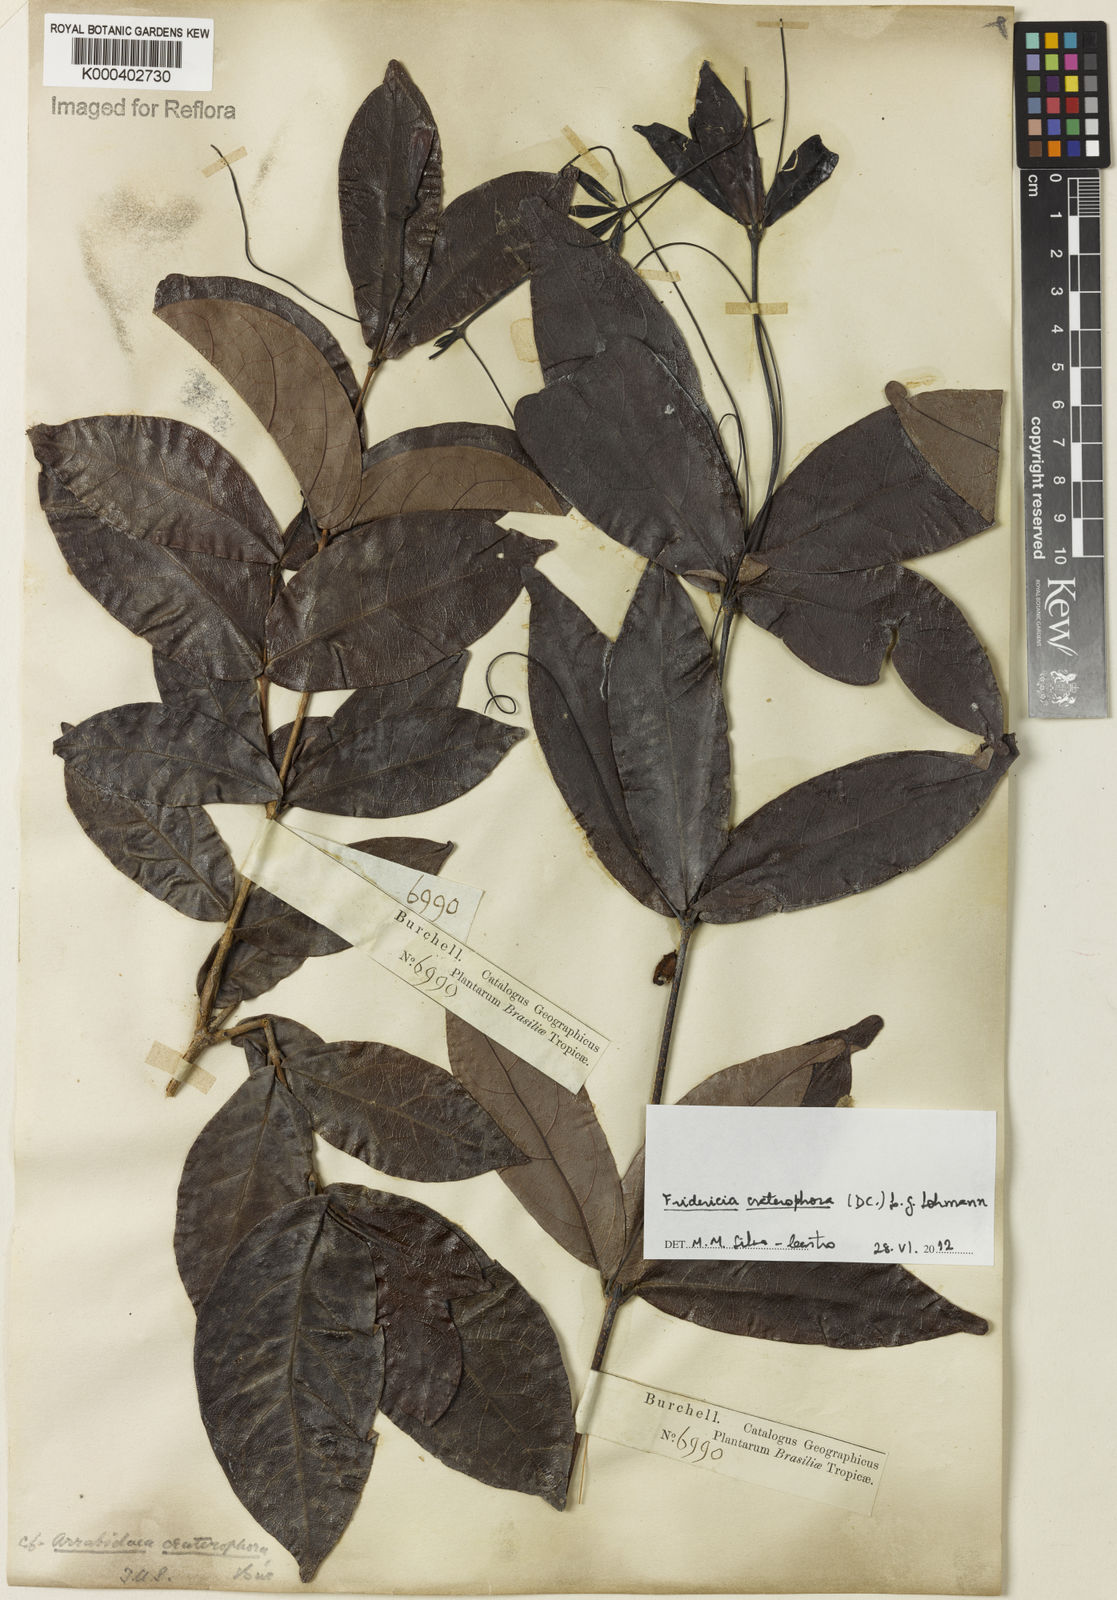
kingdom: Plantae
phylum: Tracheophyta
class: Magnoliopsida
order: Lamiales
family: Bignoniaceae
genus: Fridericia
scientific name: Fridericia craterophora
